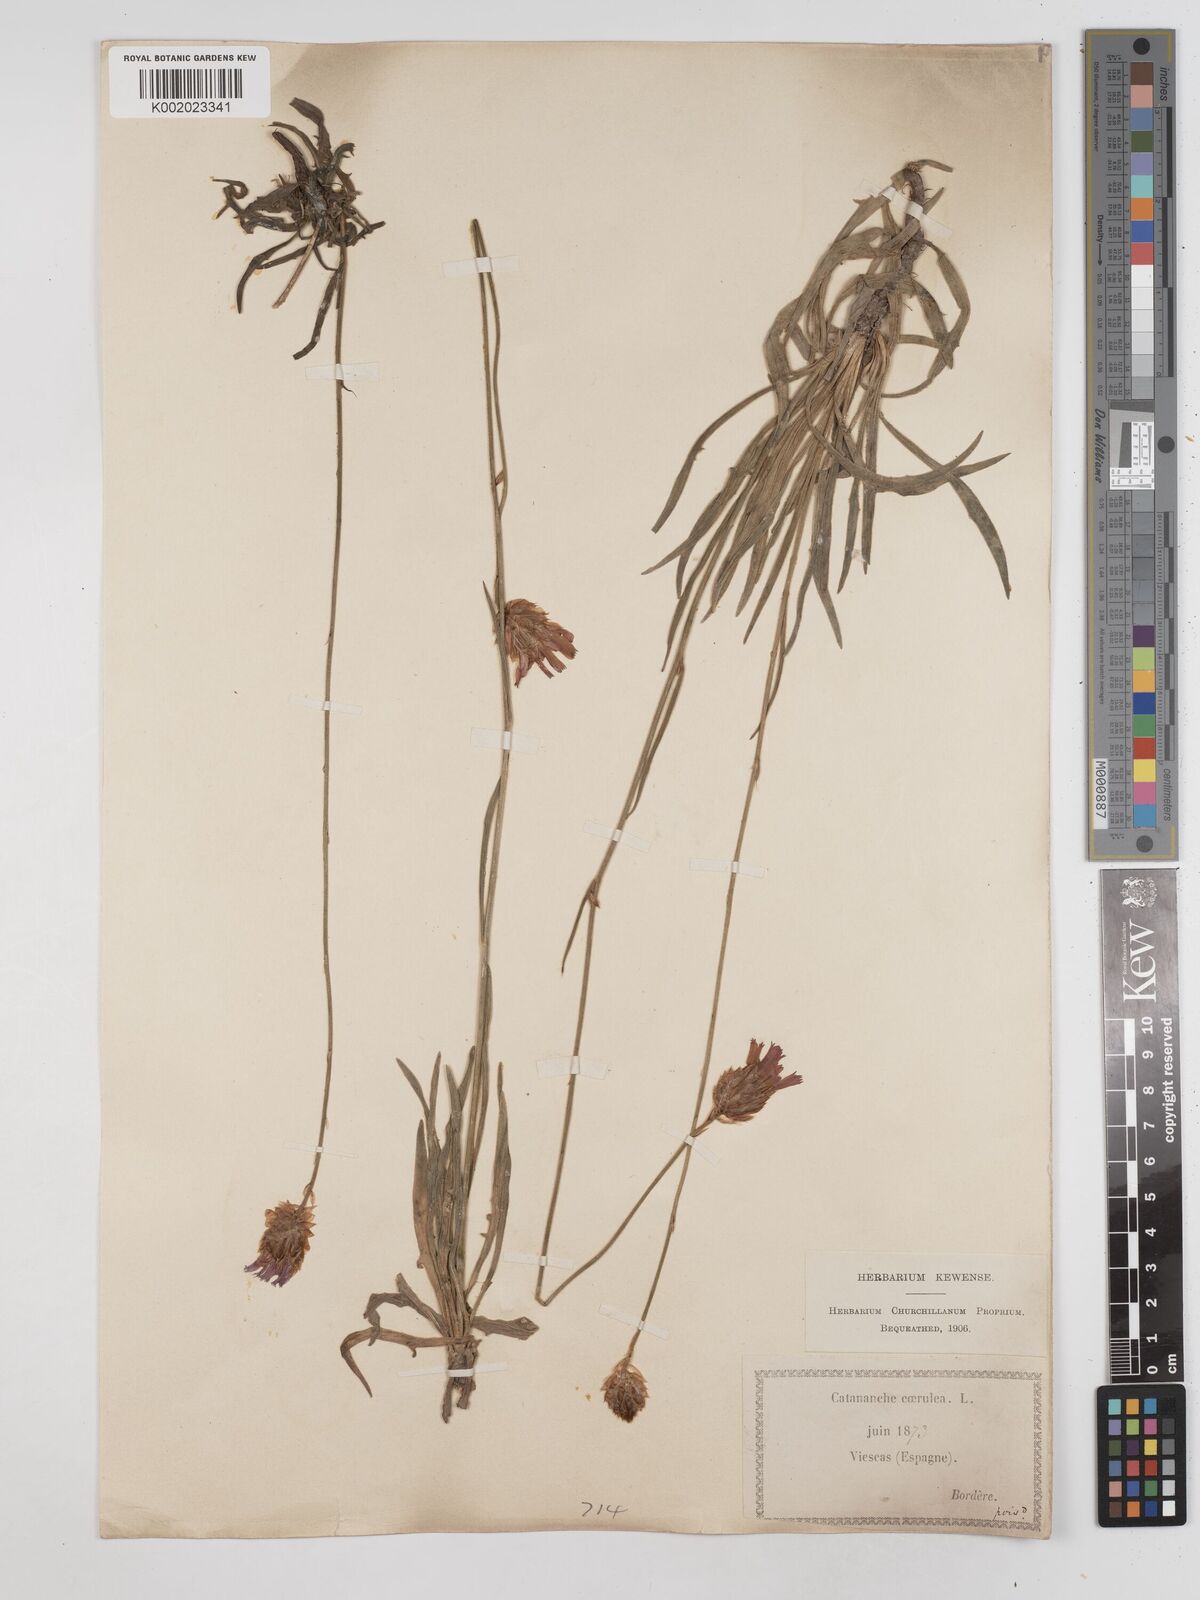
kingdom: Plantae
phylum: Tracheophyta
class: Magnoliopsida
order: Asterales
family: Asteraceae
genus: Catananche
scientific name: Catananche caerulea
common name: Blue cupidone
